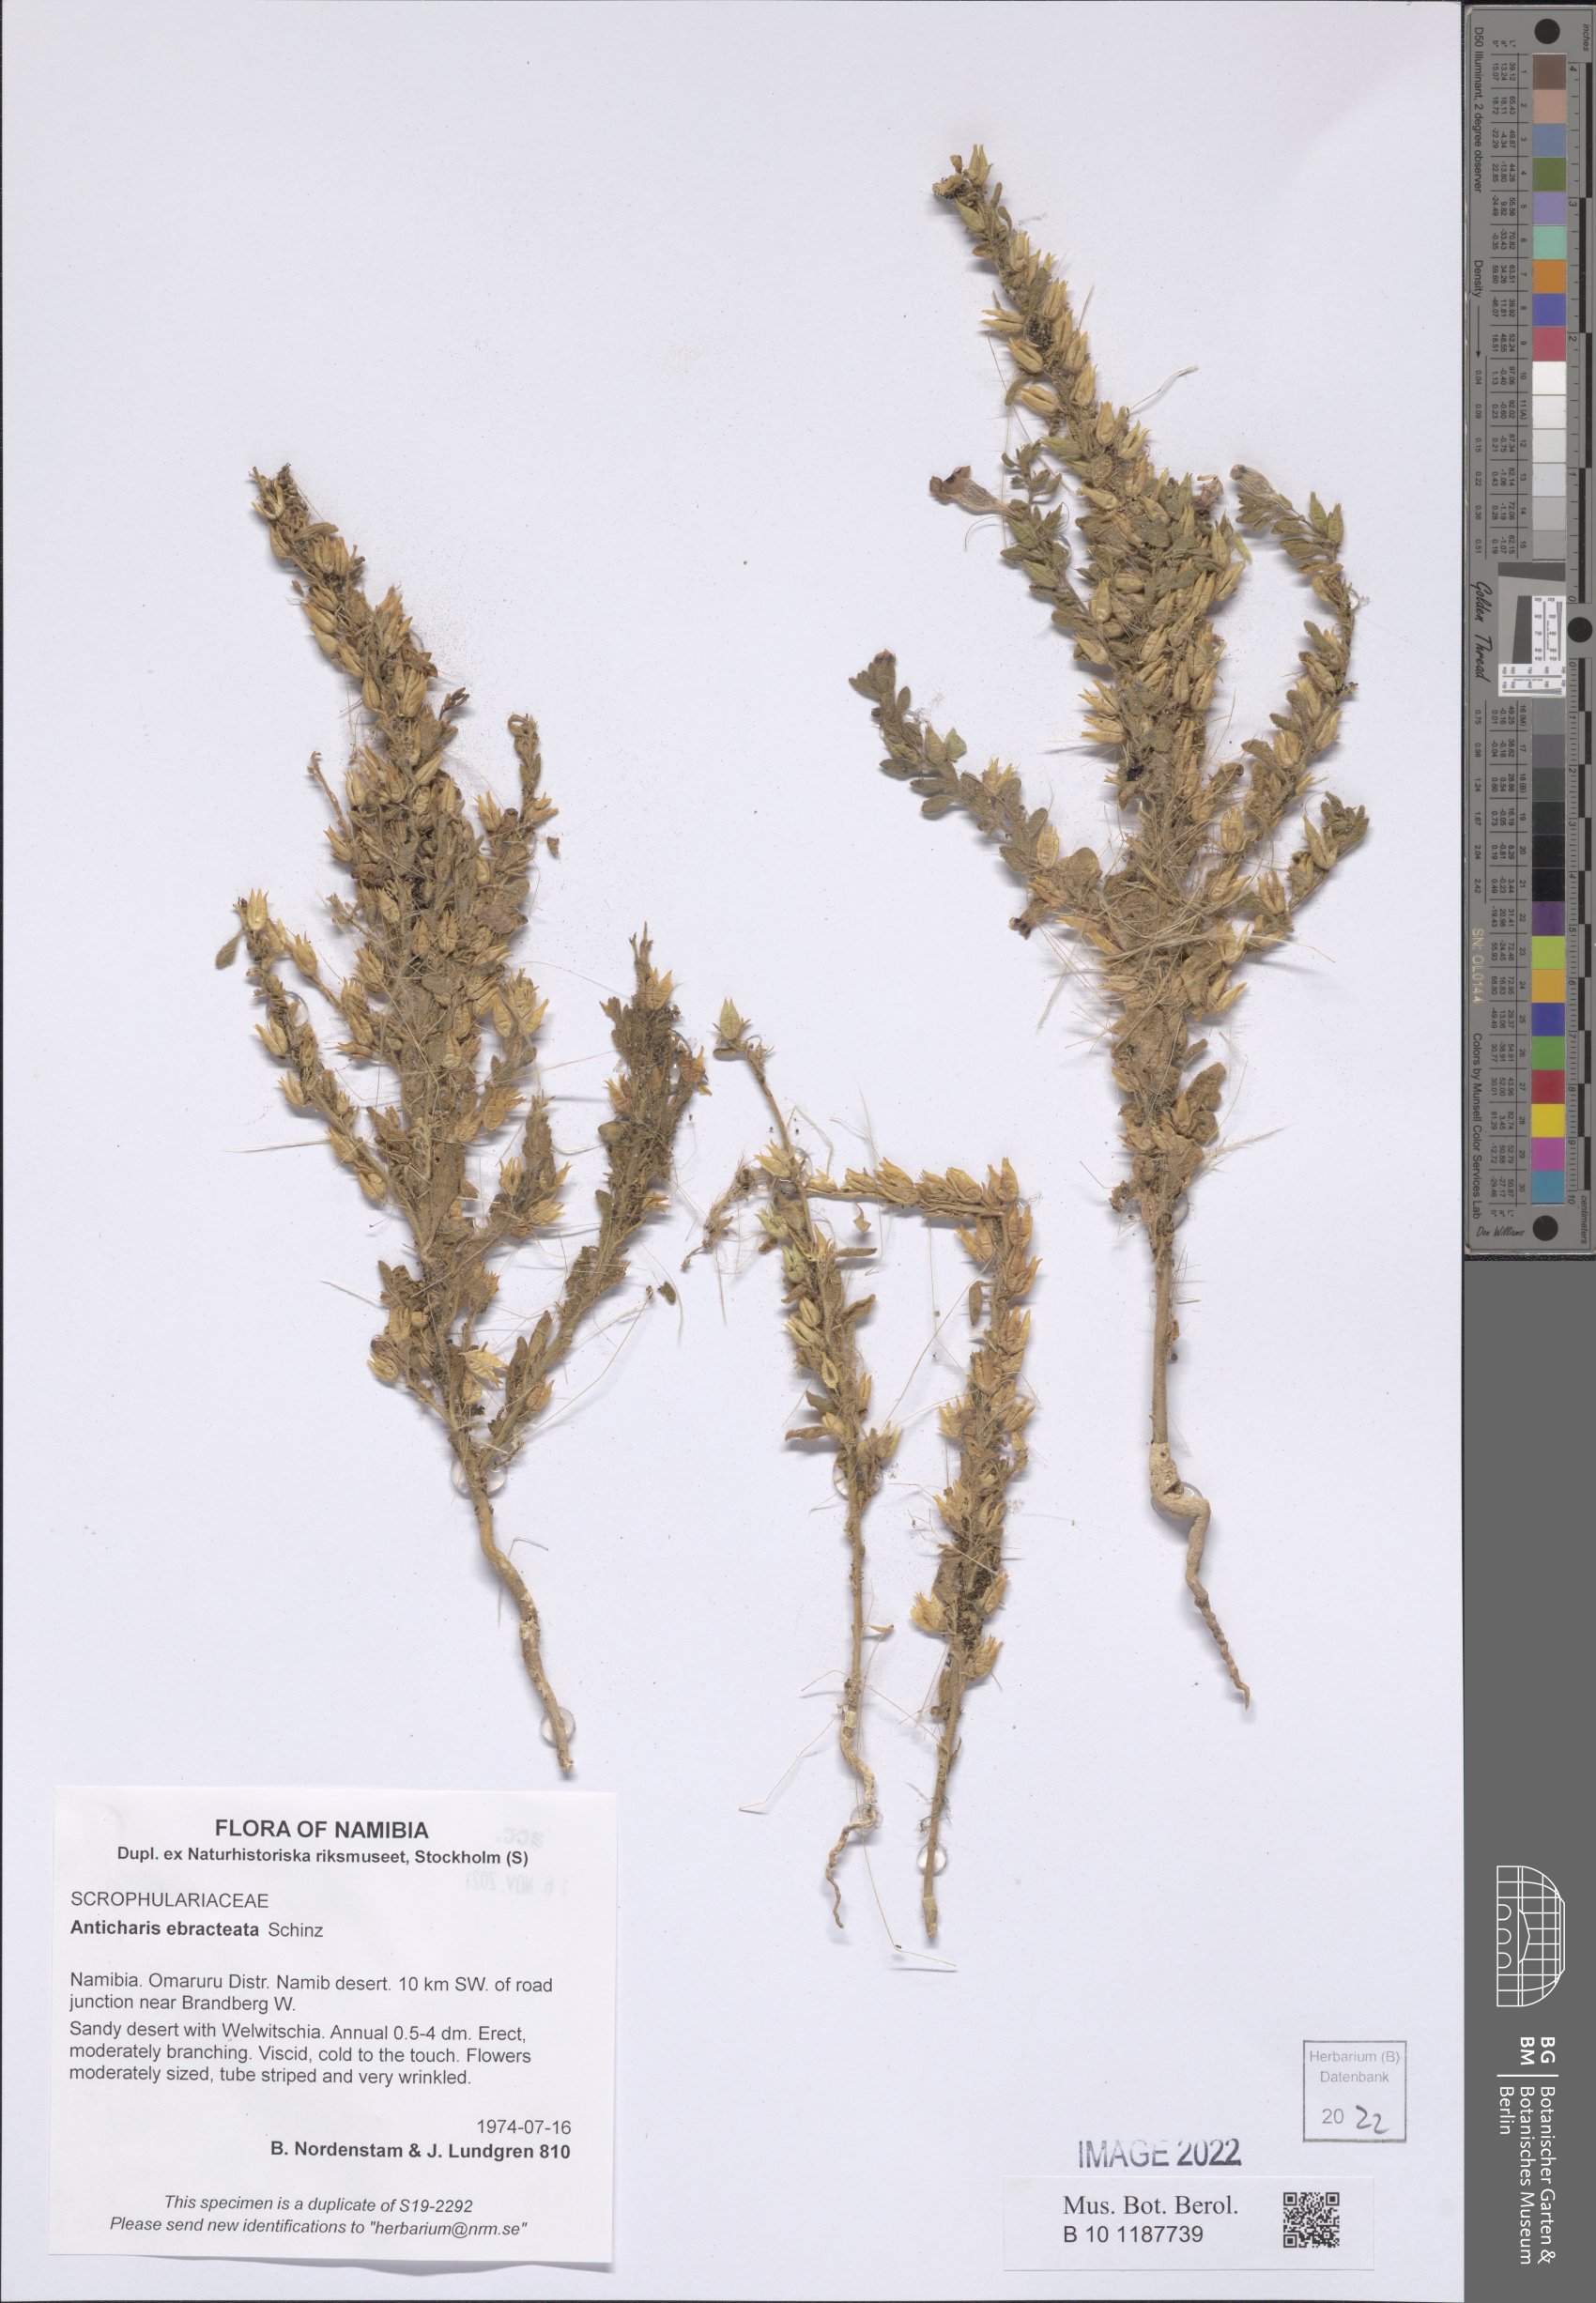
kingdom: Plantae
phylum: Tracheophyta
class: Magnoliopsida
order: Lamiales
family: Scrophulariaceae
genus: Anticharis
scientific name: Anticharis ebracteata
